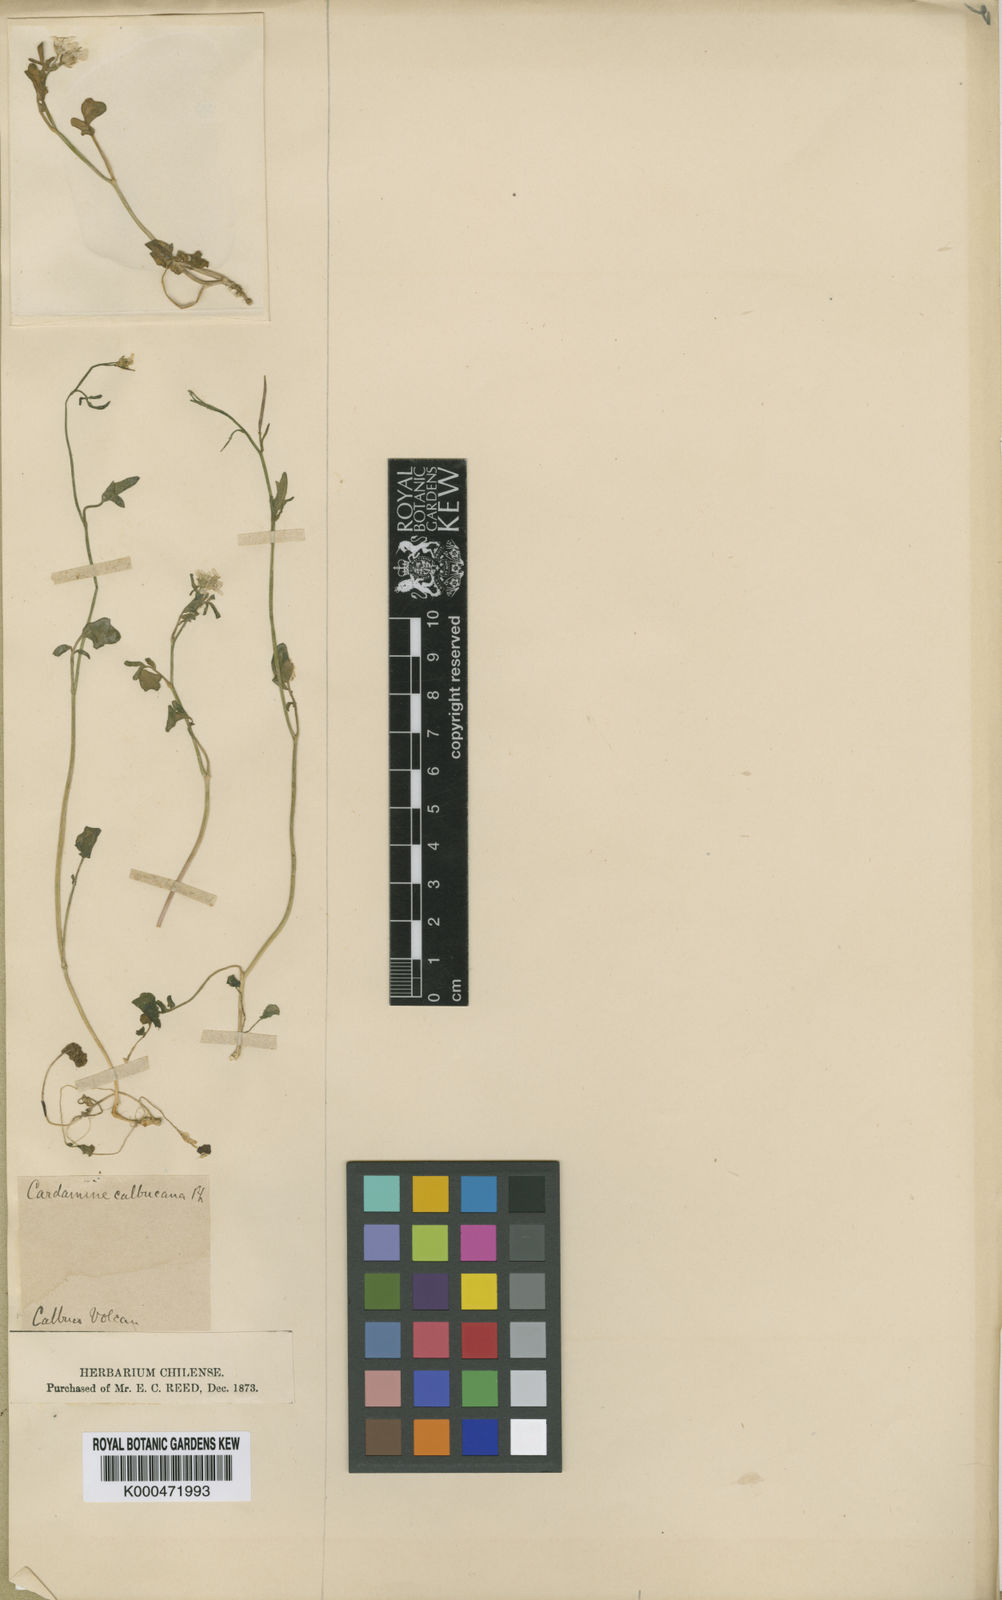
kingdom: Plantae
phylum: Tracheophyta
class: Magnoliopsida
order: Brassicales
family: Brassicaceae
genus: Cardamine
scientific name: Cardamine cordata
